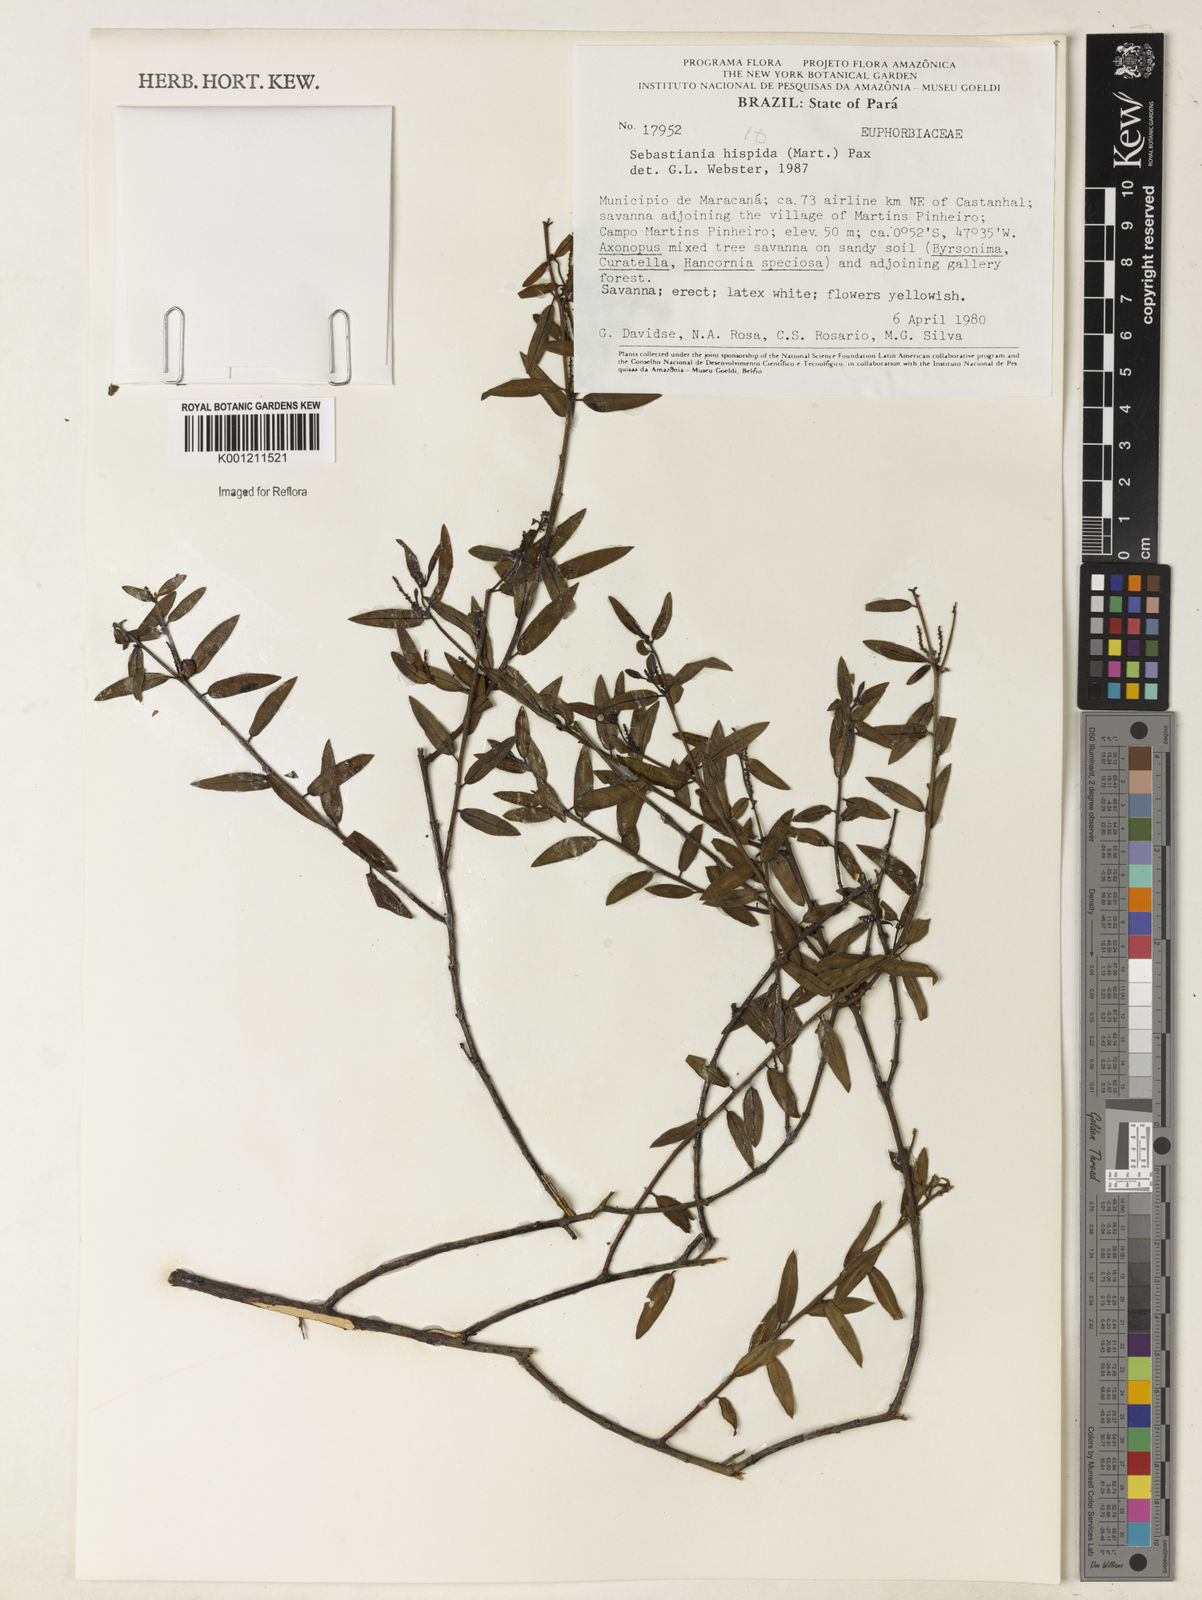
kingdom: Plantae
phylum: Tracheophyta
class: Magnoliopsida
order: Malpighiales
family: Euphorbiaceae
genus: Microstachys
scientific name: Microstachys hispida
